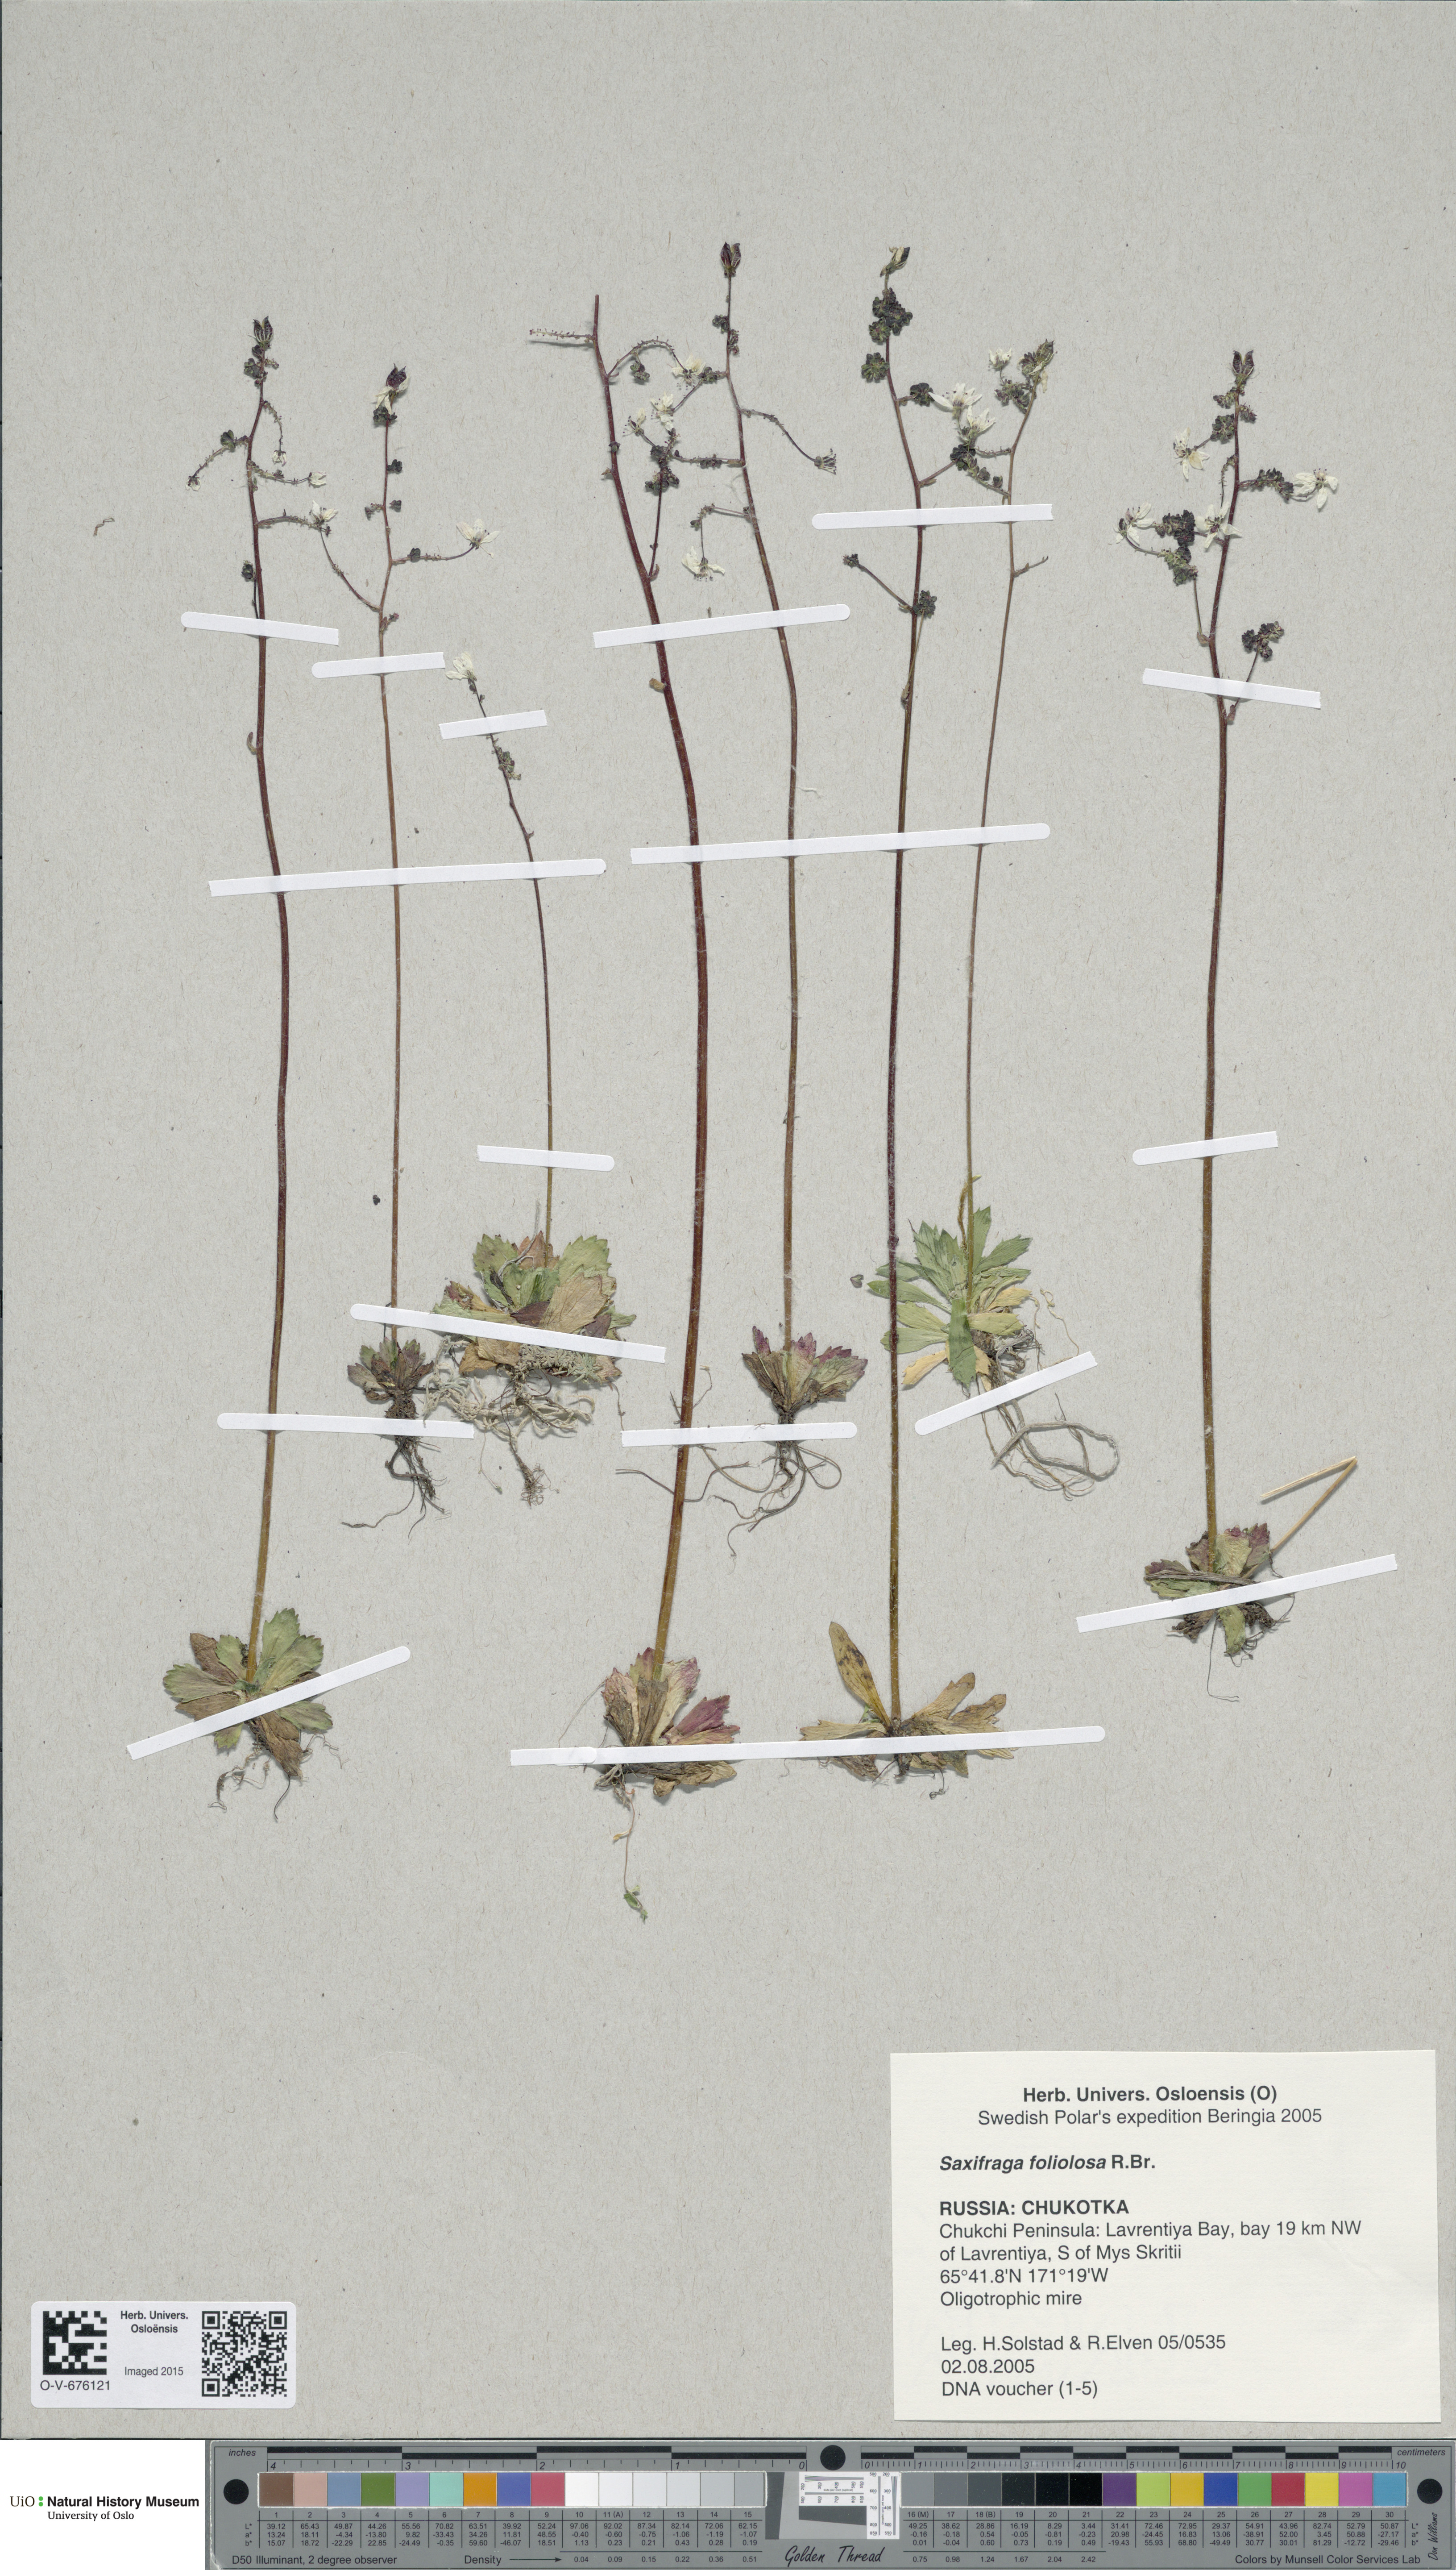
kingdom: Plantae
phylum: Tracheophyta
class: Magnoliopsida
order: Saxifragales
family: Saxifragaceae
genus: Micranthes
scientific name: Micranthes foliolosa
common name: Leafystem saxifrage
